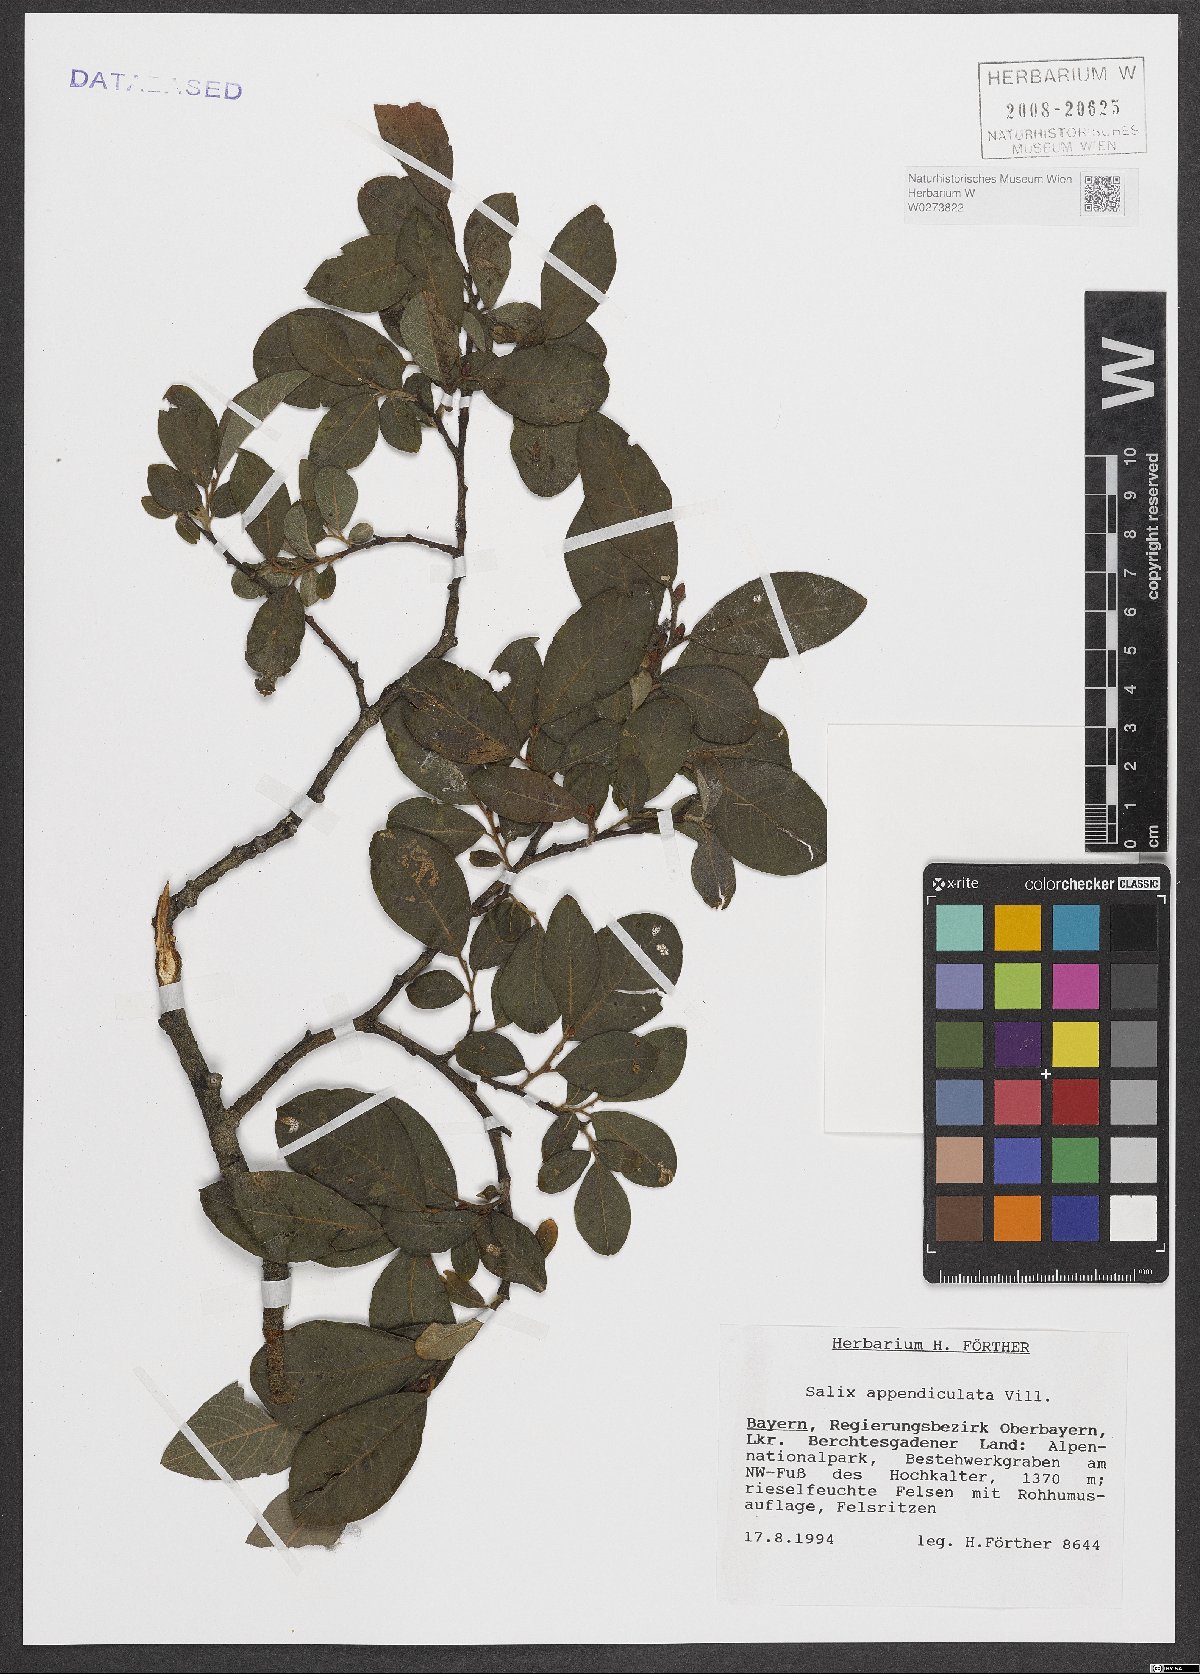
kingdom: Plantae
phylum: Tracheophyta
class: Magnoliopsida
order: Malpighiales
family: Salicaceae
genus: Salix
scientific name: Salix appendiculata
